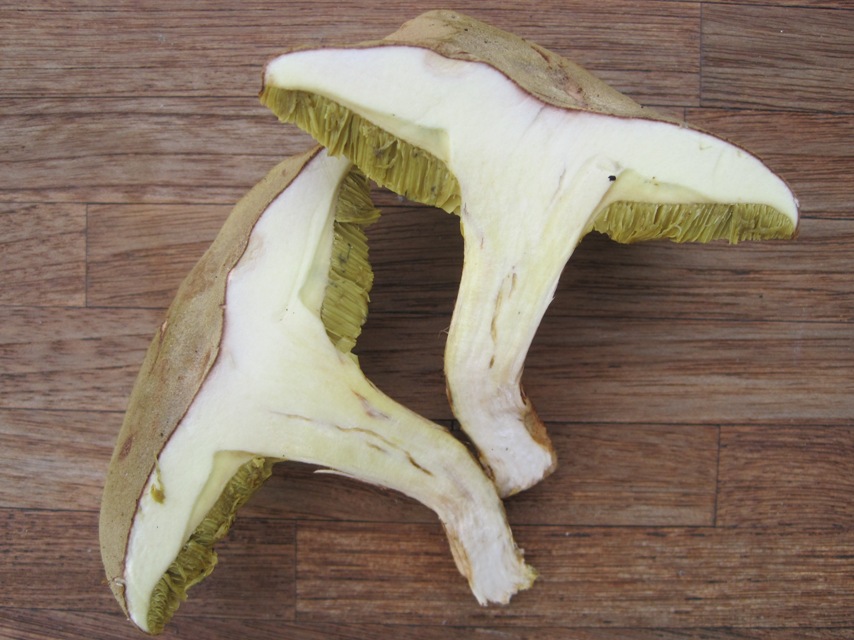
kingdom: Fungi
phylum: Basidiomycota
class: Agaricomycetes
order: Boletales
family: Boletaceae
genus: Xerocomus
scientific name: Xerocomus ferrugineus
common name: vaskeskinds-rørhat
